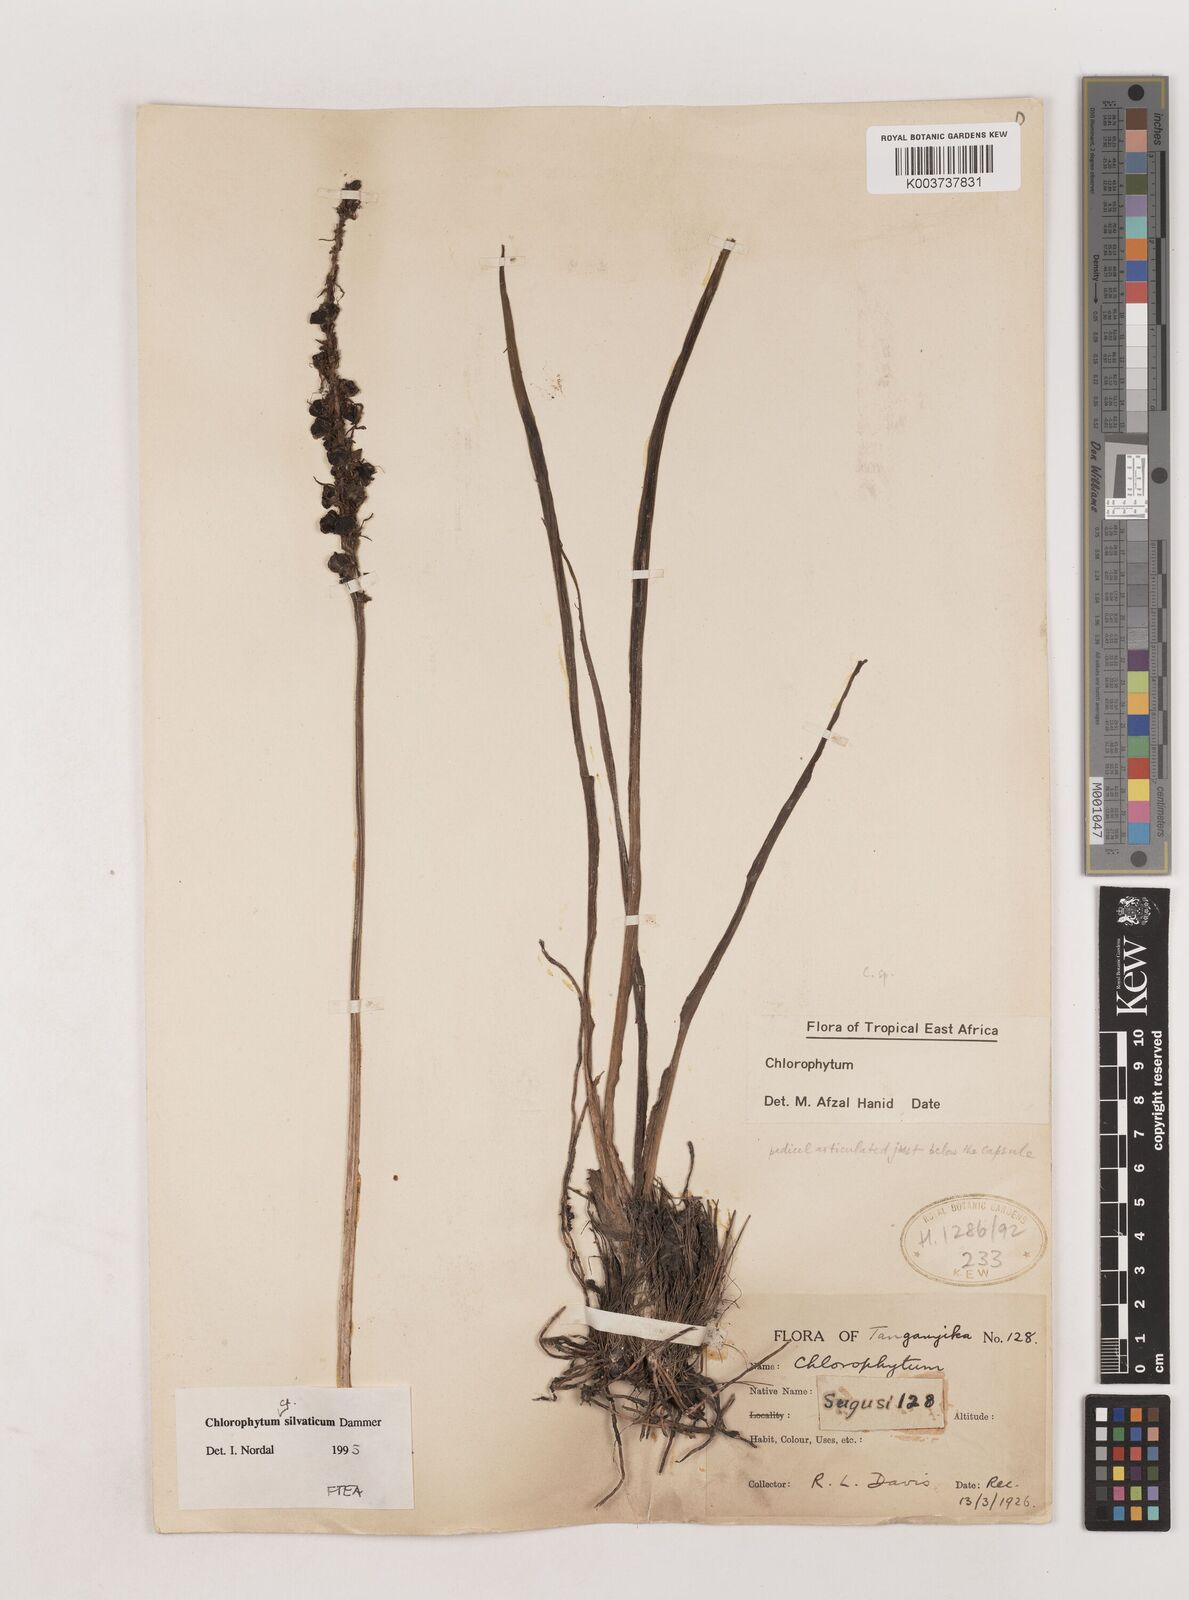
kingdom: Plantae
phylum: Tracheophyta
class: Liliopsida
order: Asparagales
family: Asparagaceae
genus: Chlorophytum
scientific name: Chlorophytum africanum
